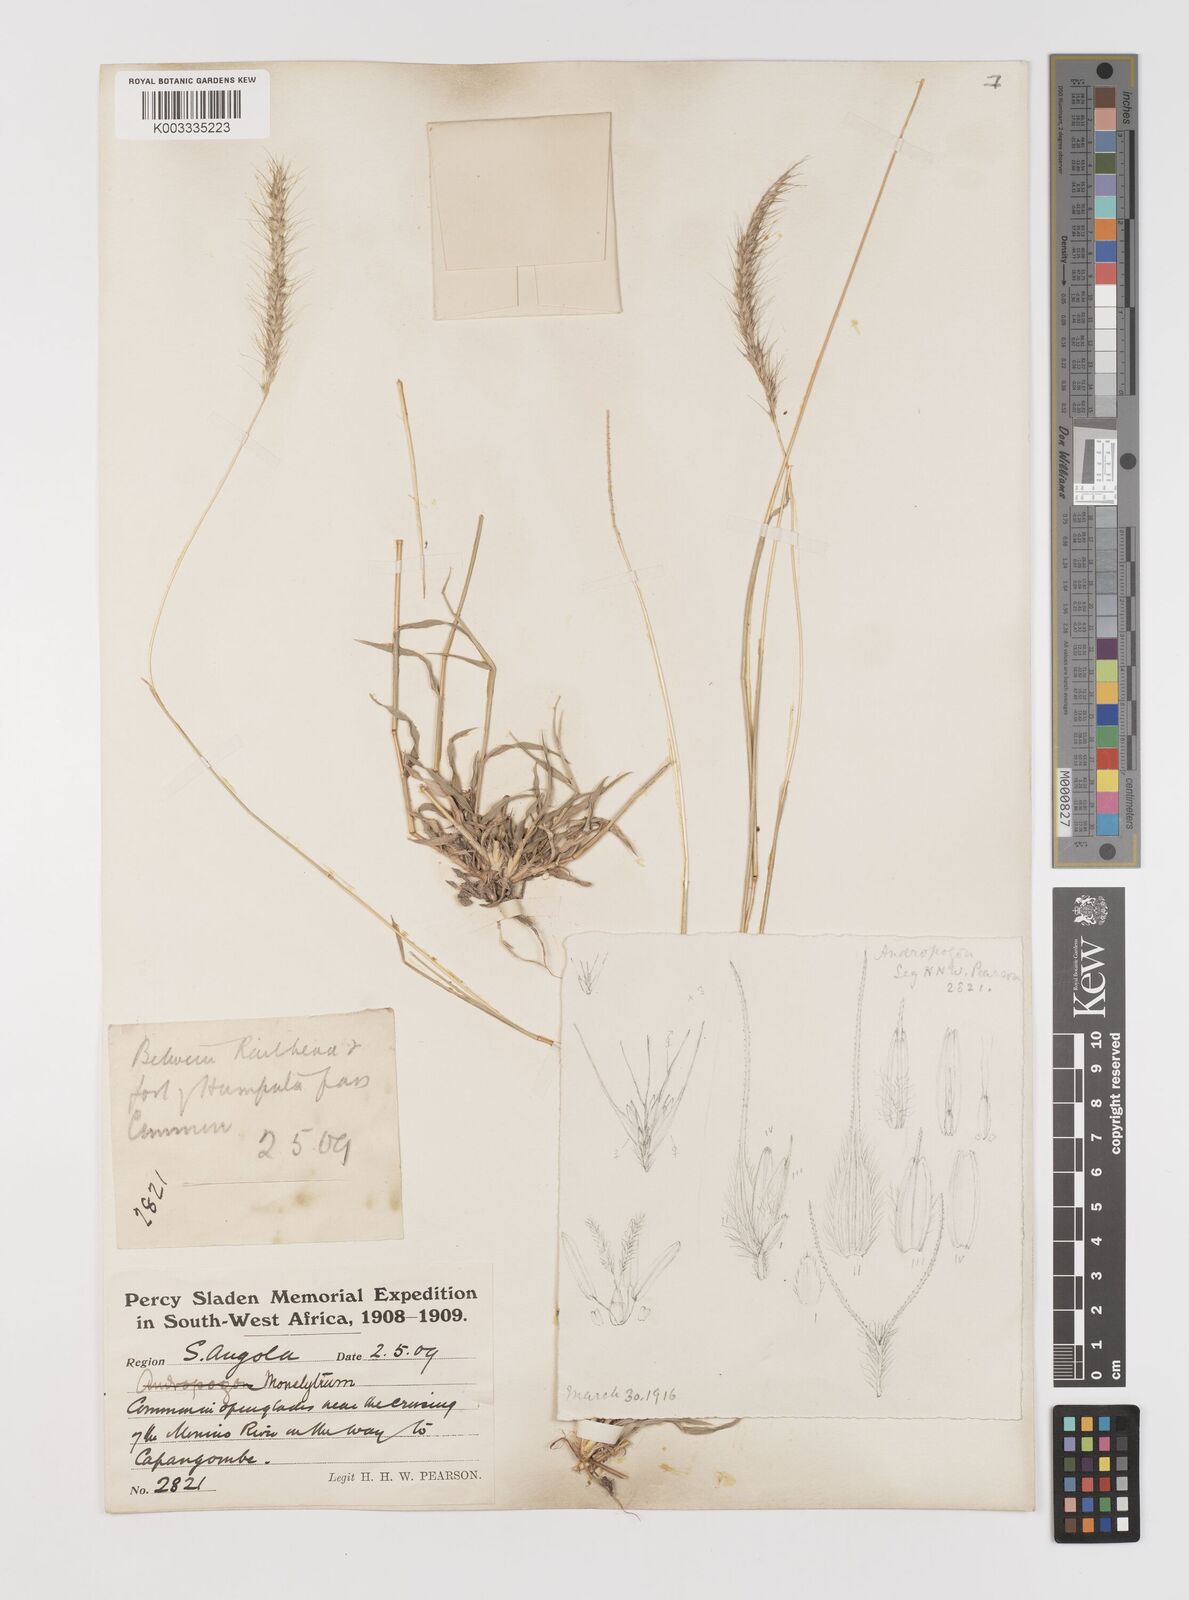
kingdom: Plantae
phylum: Tracheophyta
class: Liliopsida
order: Poales
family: Poaceae
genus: Monelytrum
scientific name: Monelytrum luederitzianum
